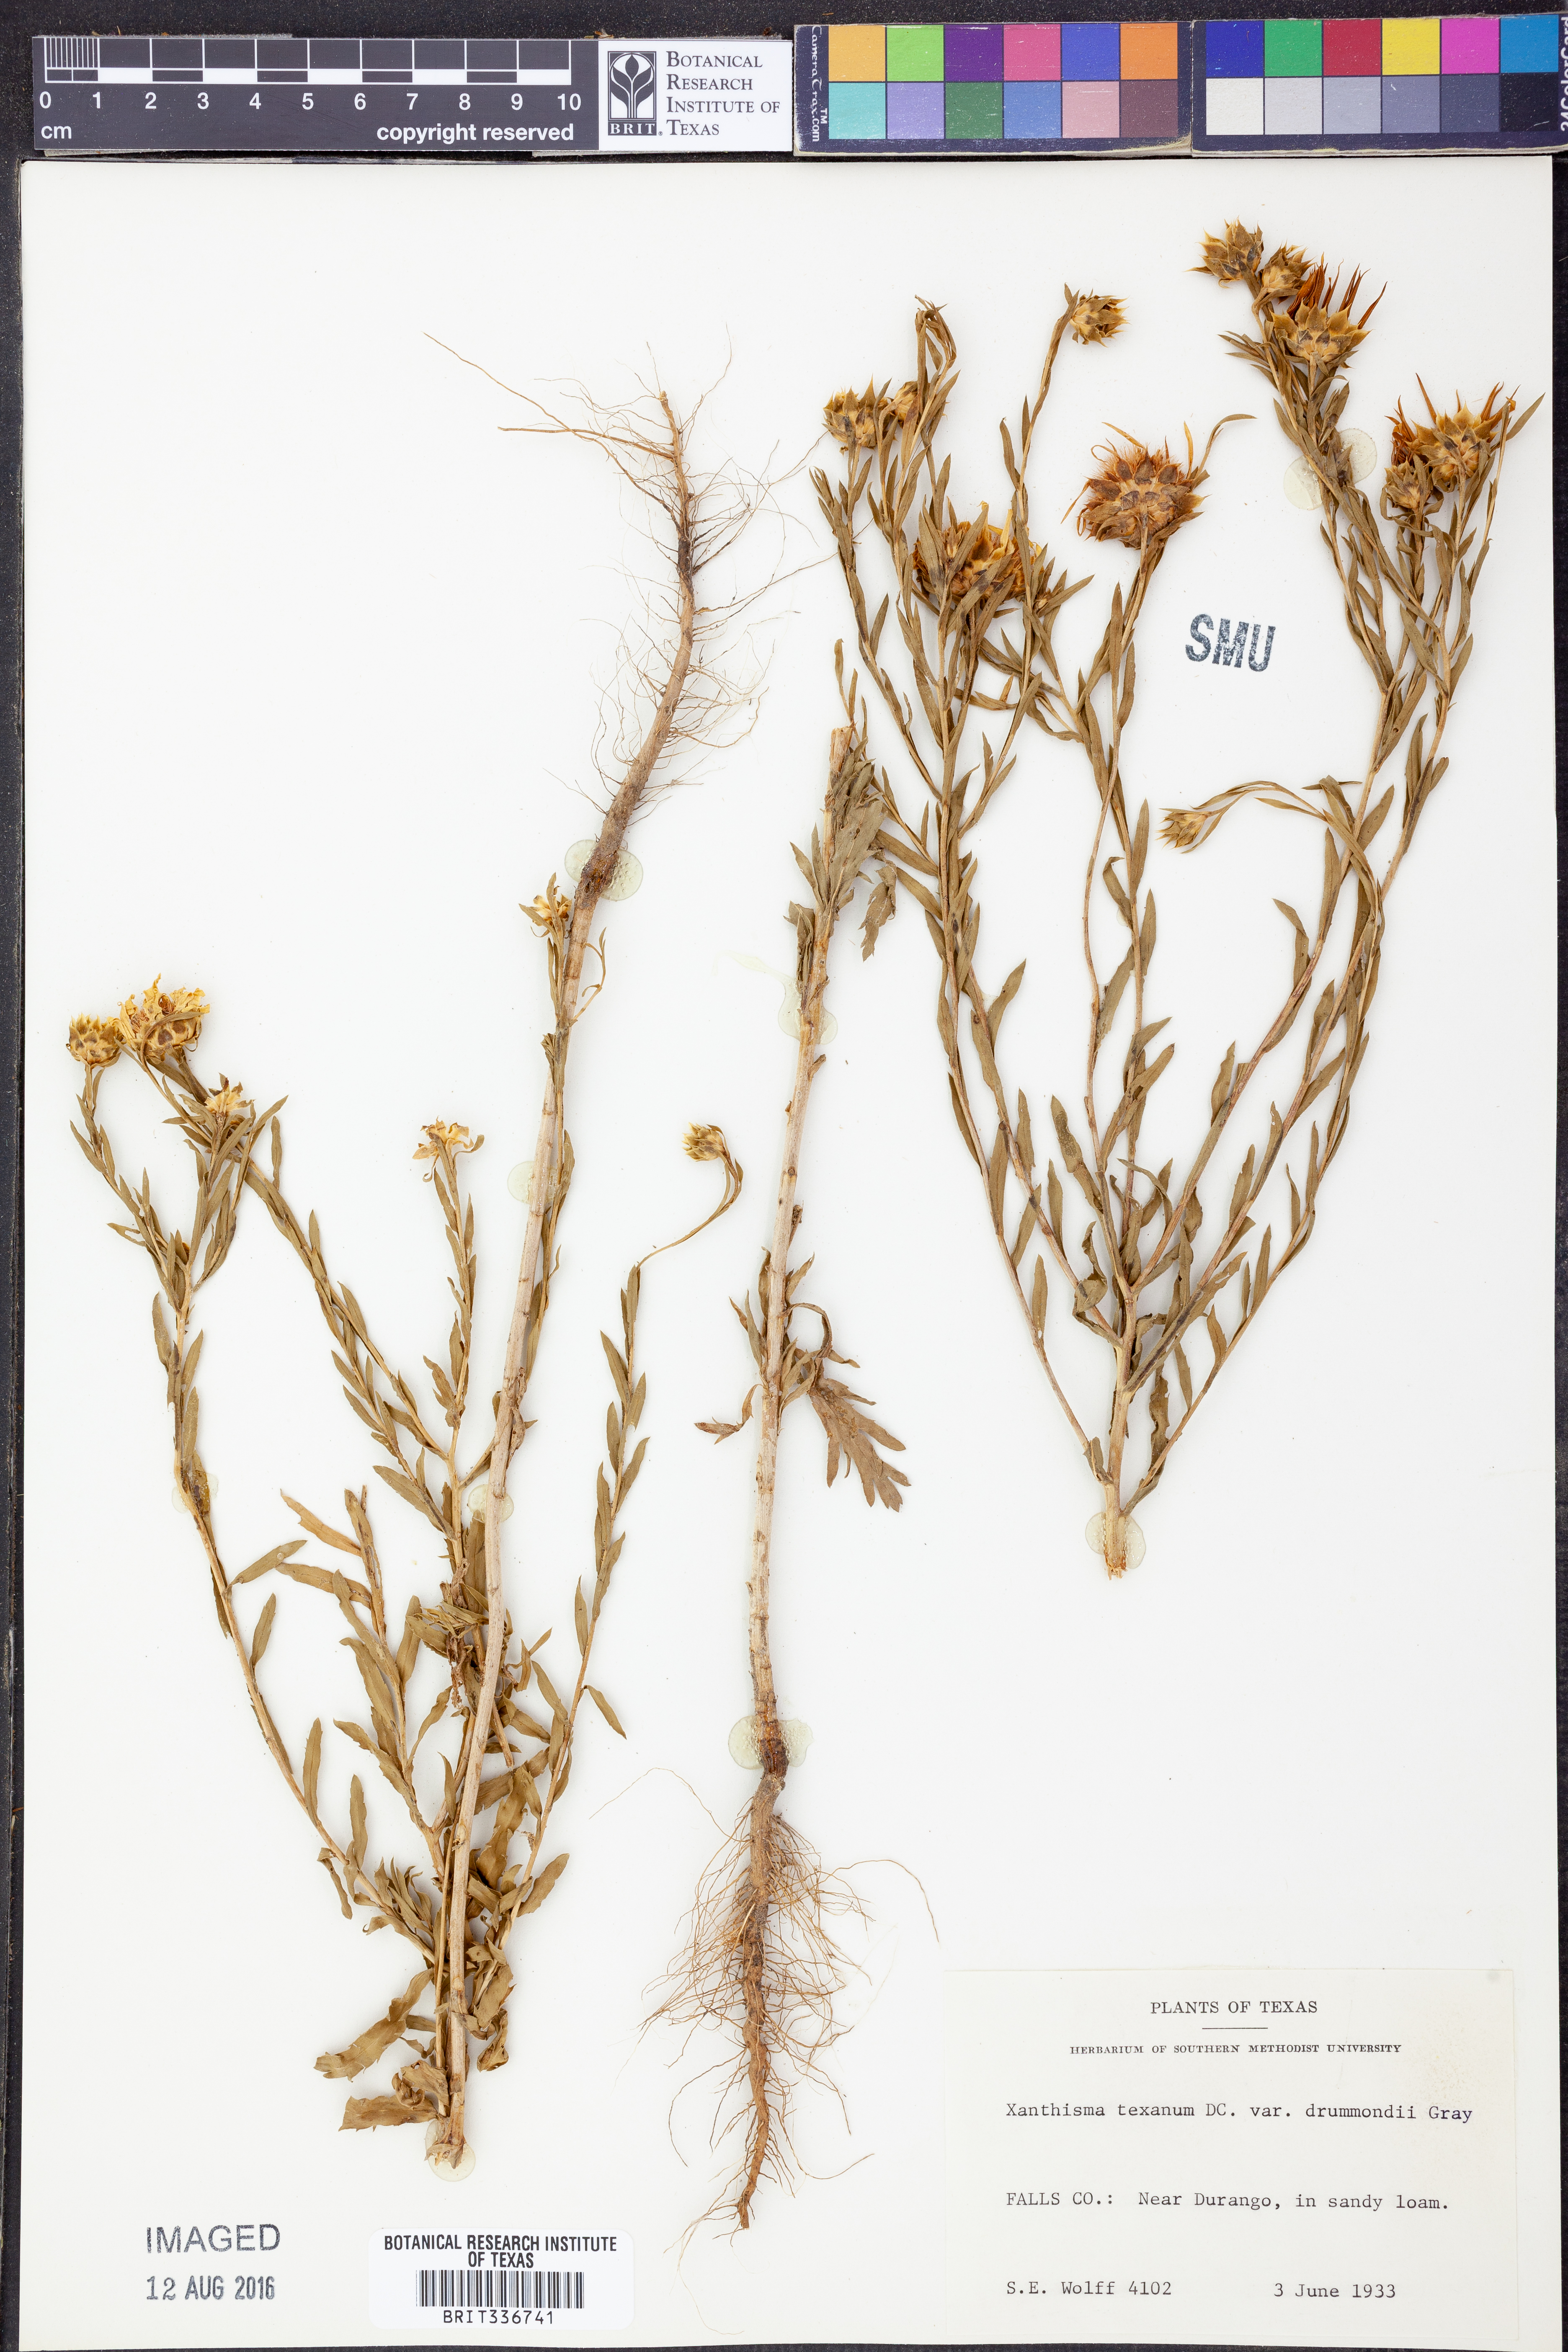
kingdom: Plantae
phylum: Tracheophyta
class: Magnoliopsida
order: Asterales
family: Asteraceae
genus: Xanthisma
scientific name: Xanthisma texanum
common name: Texas sleepy daisy
